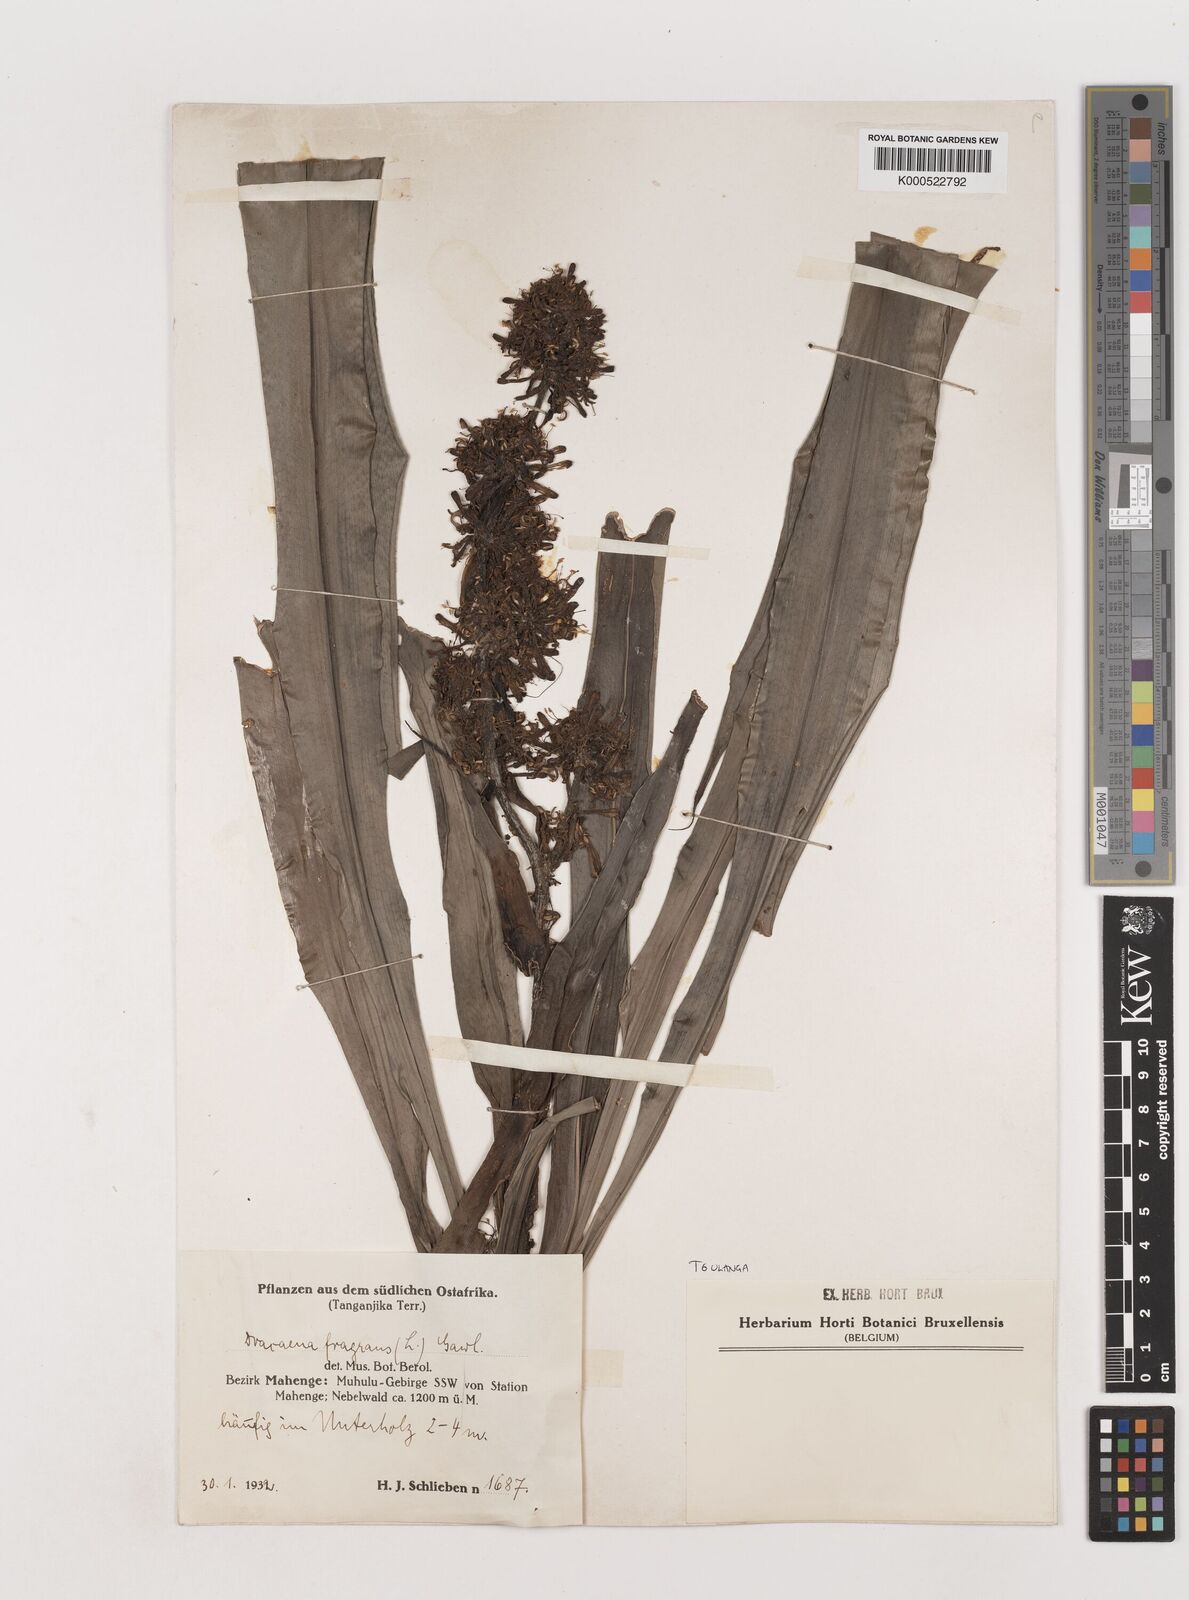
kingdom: Plantae
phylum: Tracheophyta
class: Liliopsida
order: Asparagales
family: Asparagaceae
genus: Dracaena
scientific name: Dracaena fragrans
